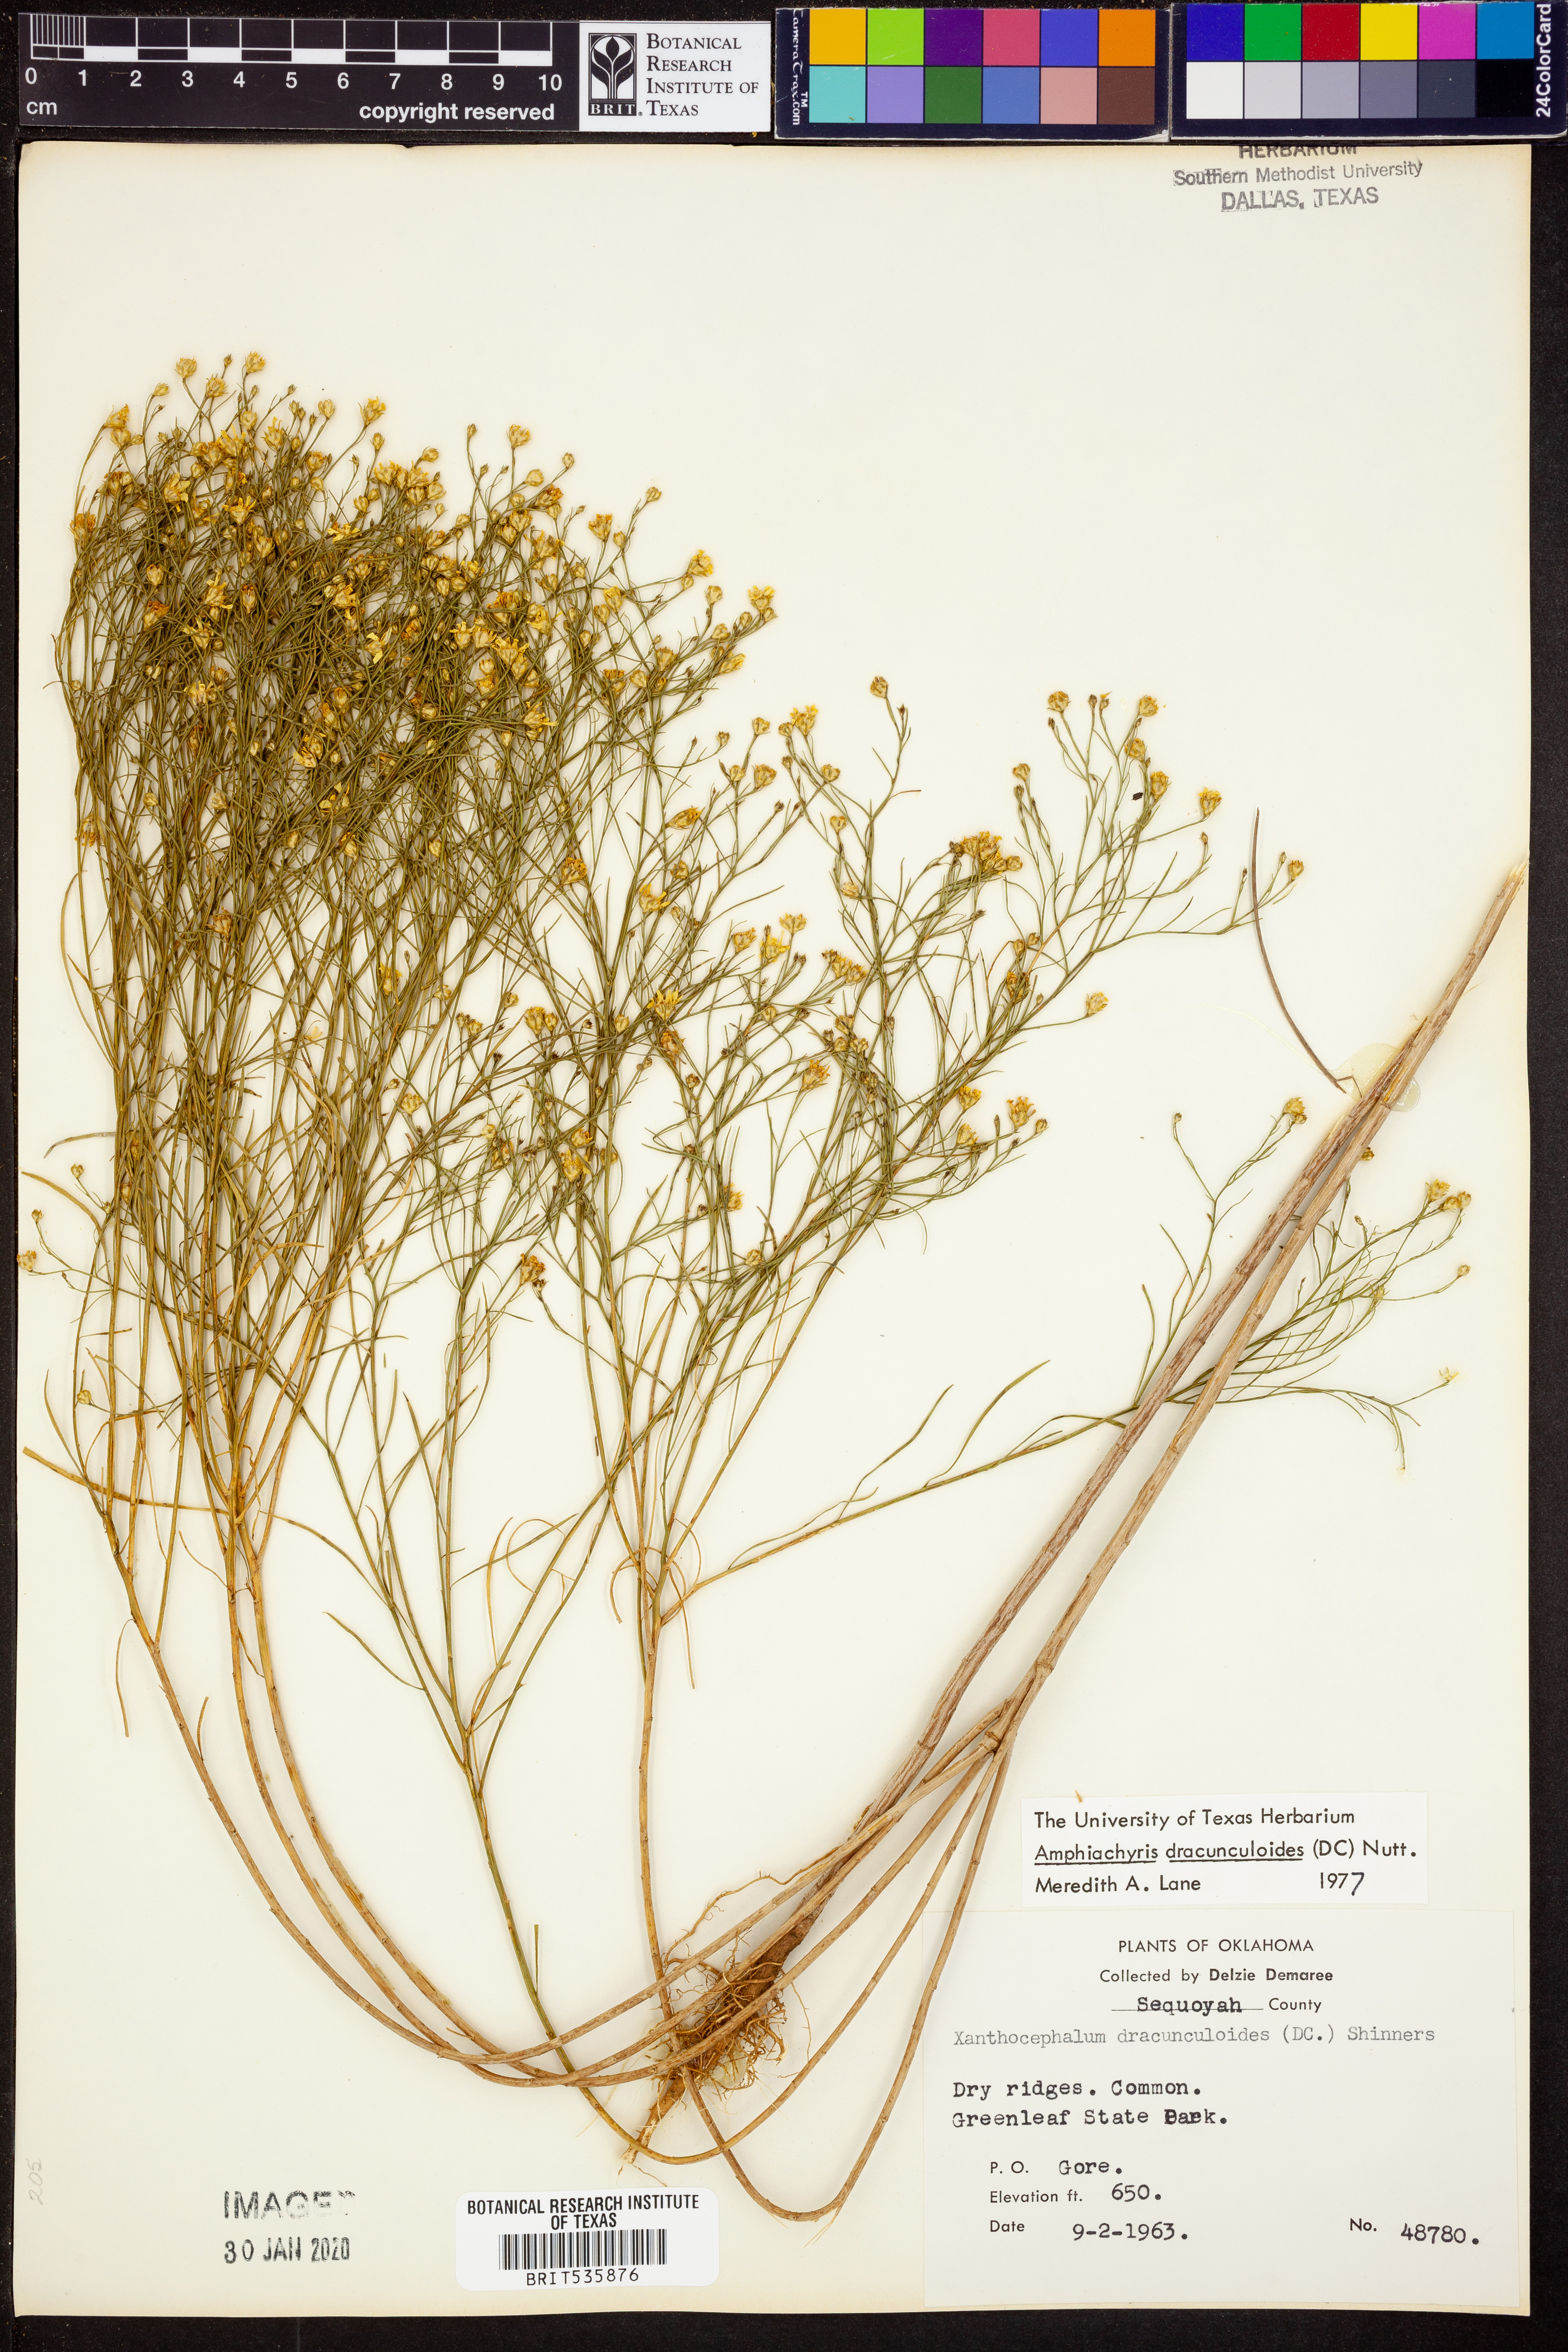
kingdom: Plantae
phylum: Tracheophyta
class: Magnoliopsida
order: Asterales
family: Asteraceae
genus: Amphiachyris
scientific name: Amphiachyris dracunculoides
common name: Broomweed
